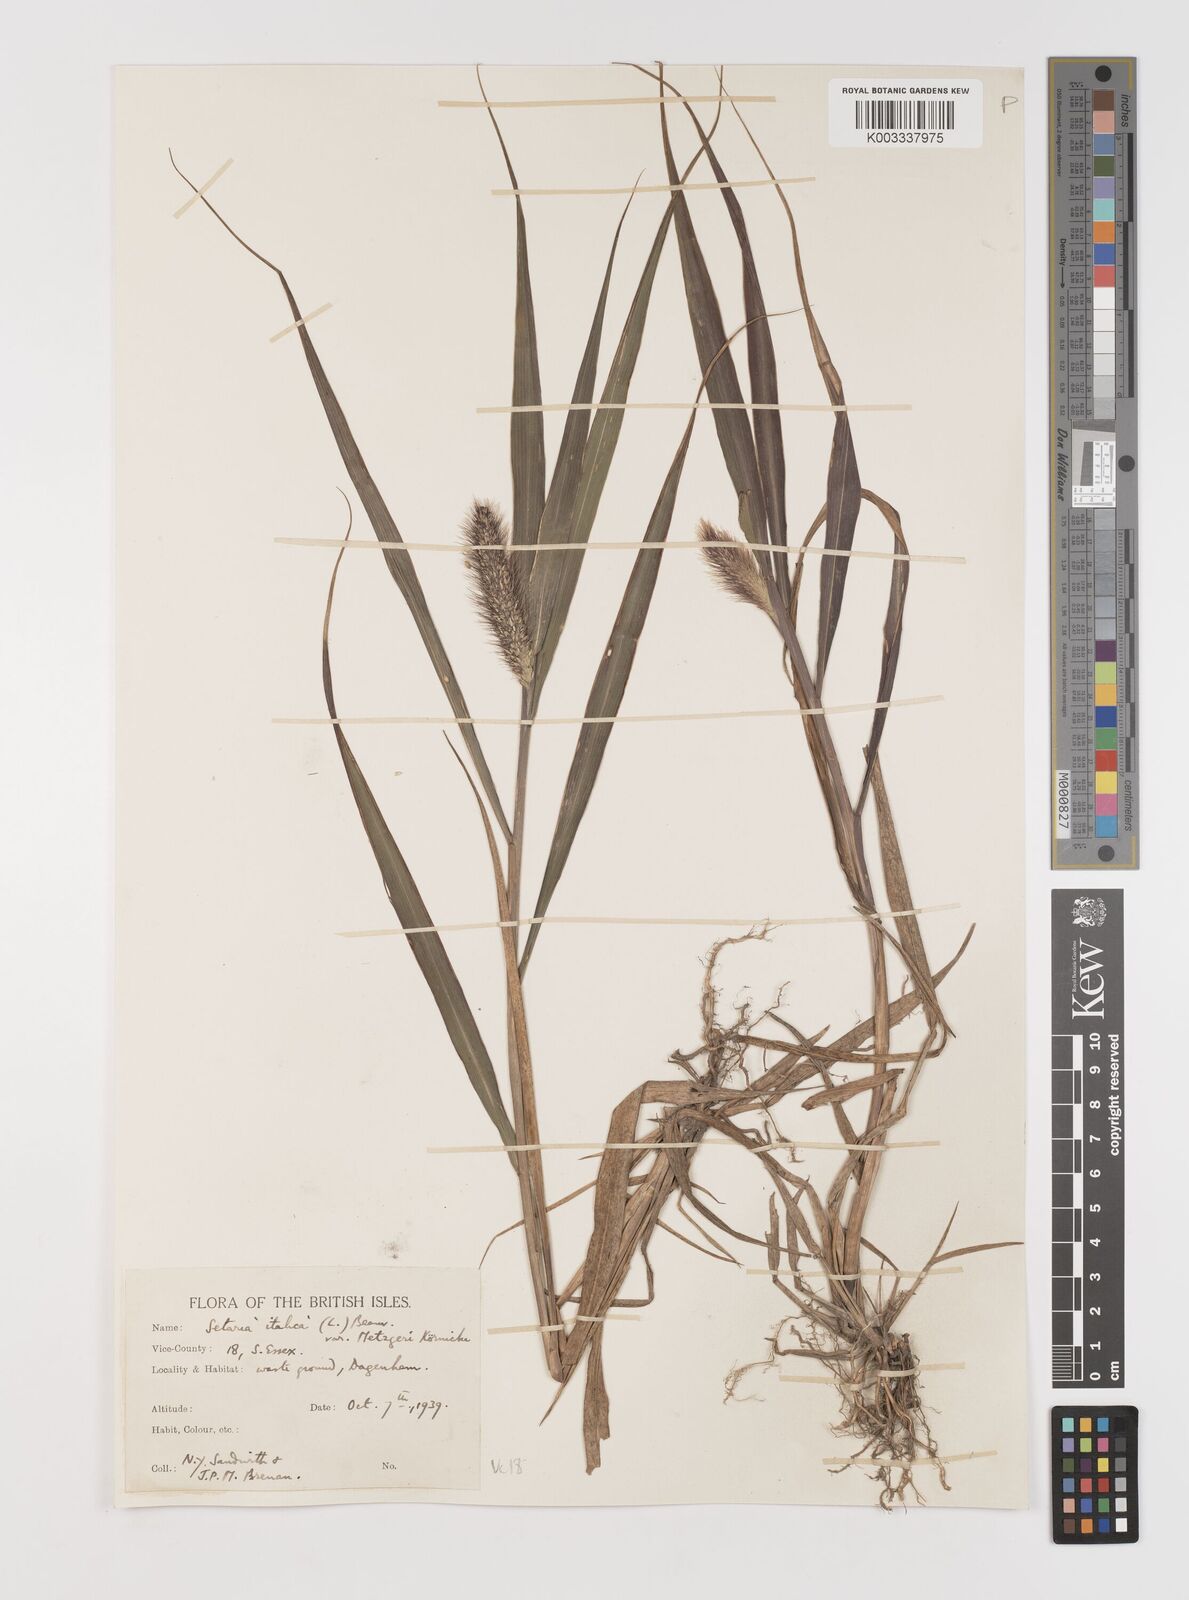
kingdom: Plantae
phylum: Tracheophyta
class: Liliopsida
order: Poales
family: Poaceae
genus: Setaria
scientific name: Setaria italica
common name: Foxtail bristle-grass
